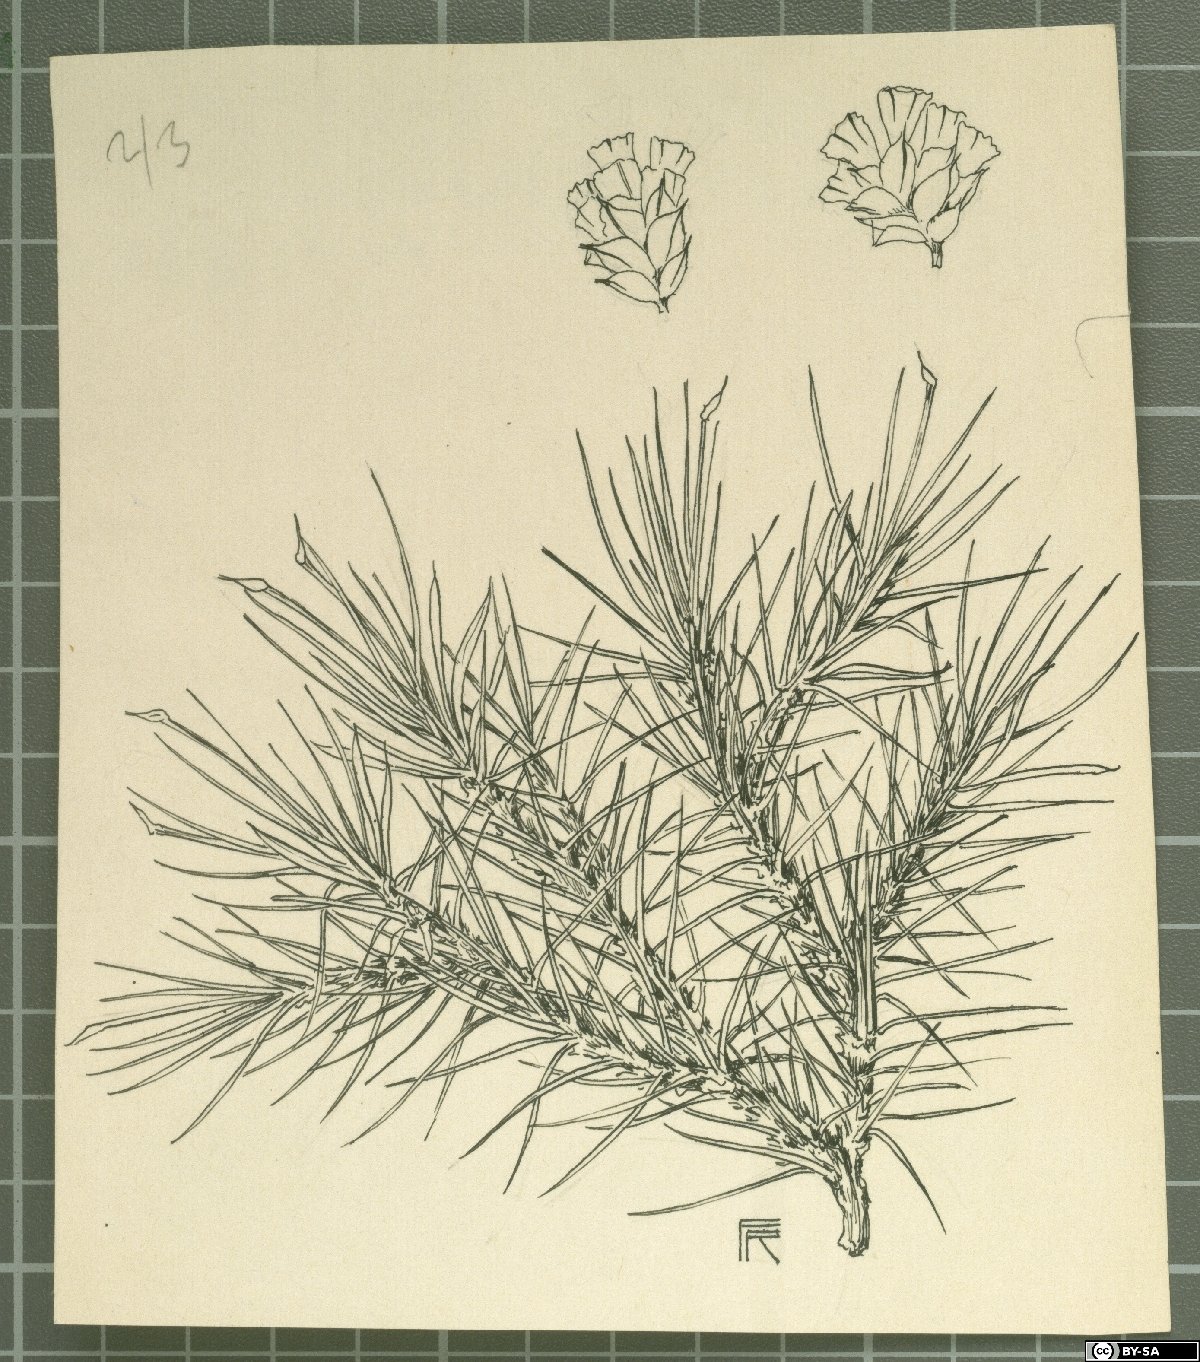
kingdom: Plantae
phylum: Tracheophyta
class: Magnoliopsida
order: Caryophyllales
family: Plumbaginaceae
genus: Acantholimon
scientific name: Acantholimon hyalinum
